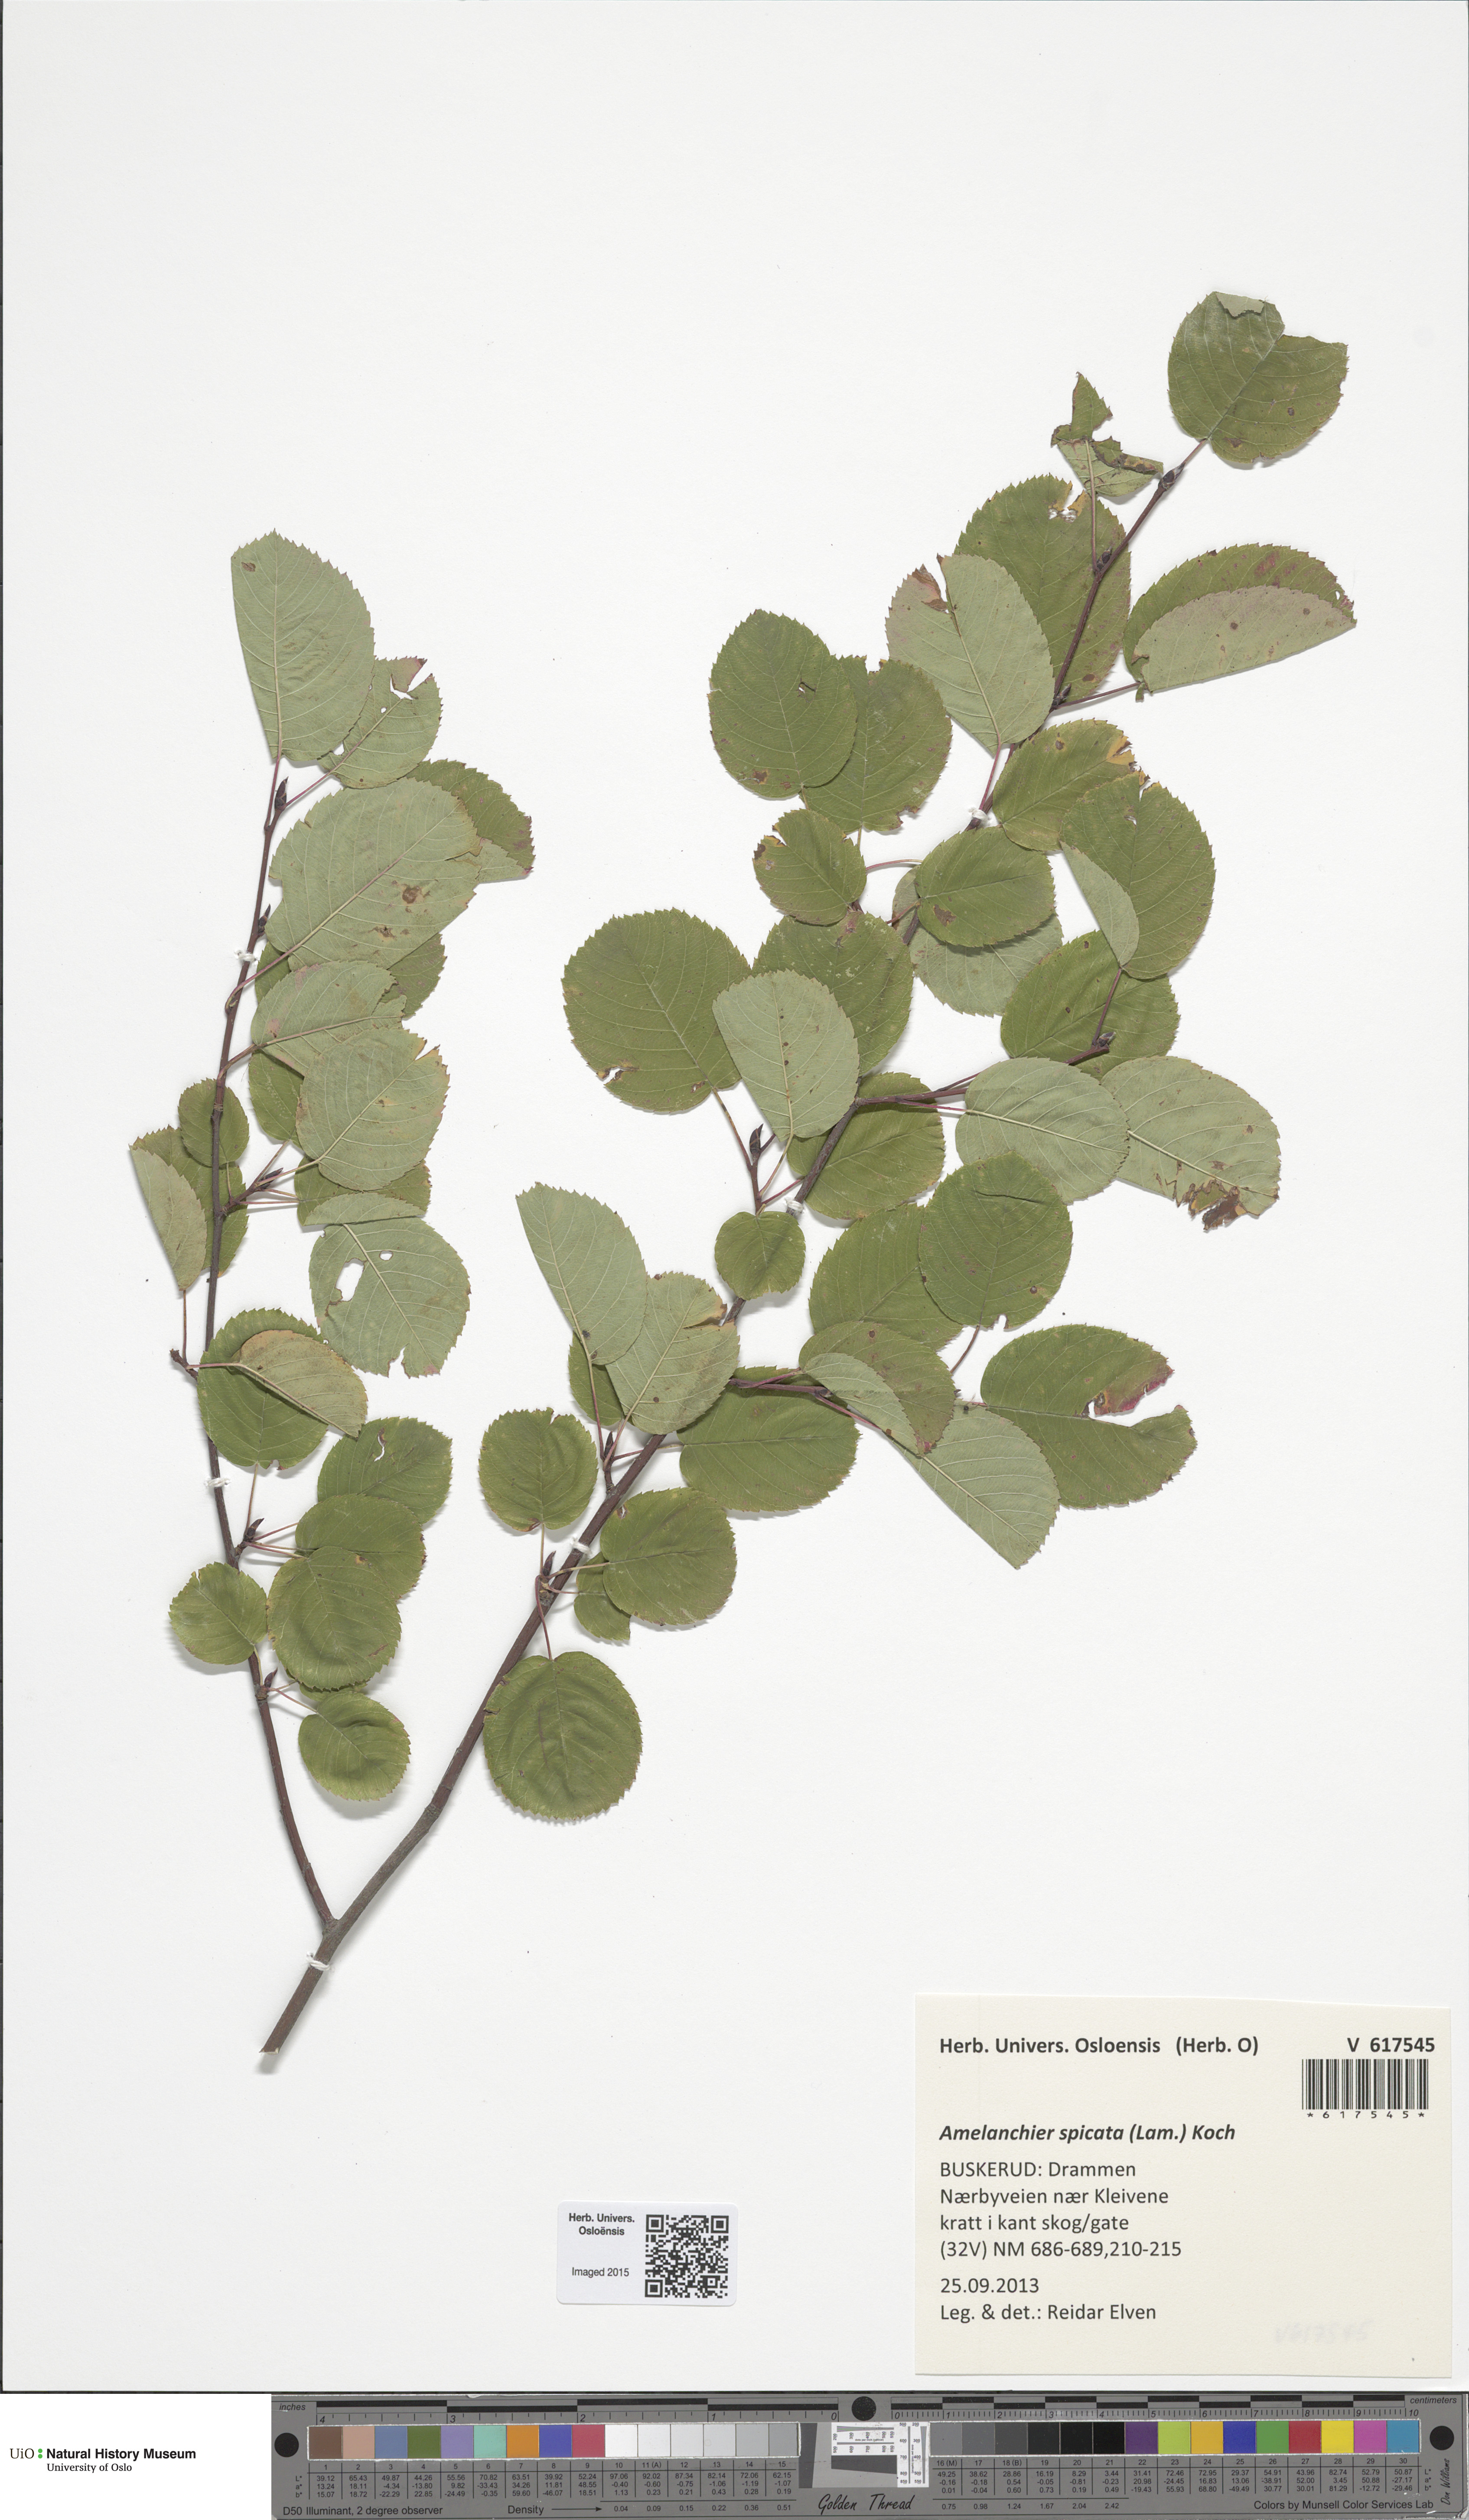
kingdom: Plantae
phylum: Tracheophyta
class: Magnoliopsida
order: Rosales
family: Rosaceae
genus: Amelanchier
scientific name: Amelanchier humilis
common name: Low juneberry
